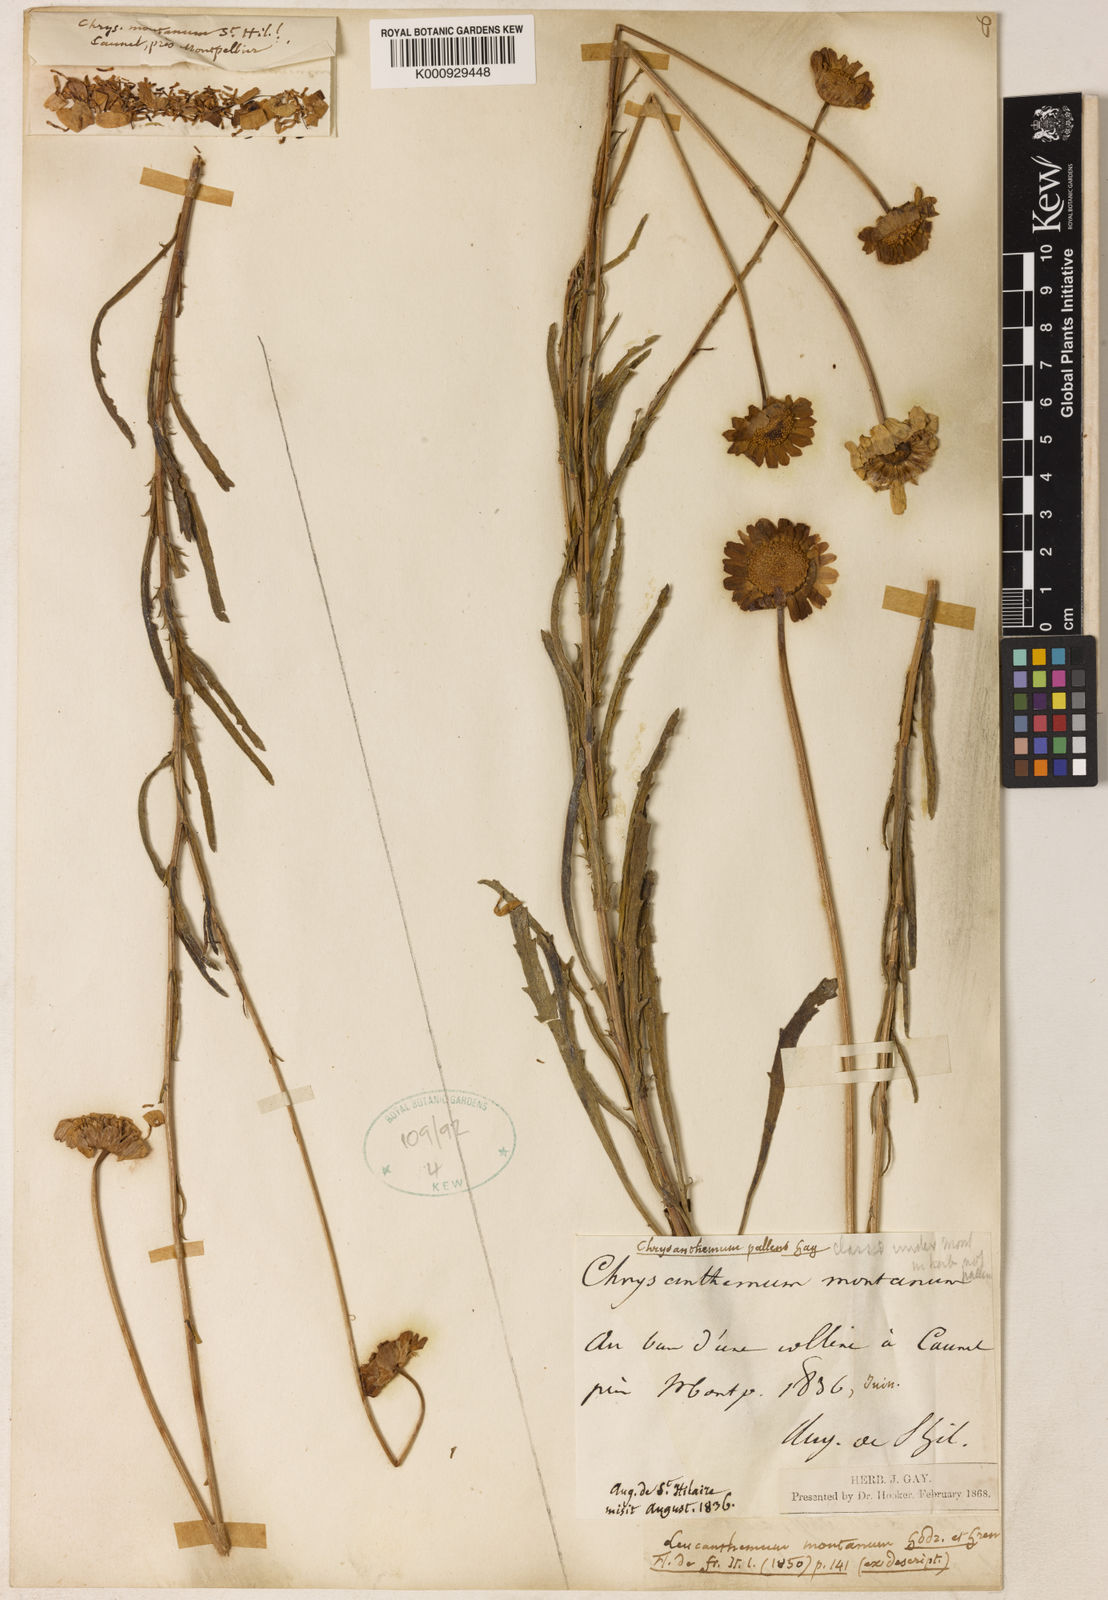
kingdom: Plantae
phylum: Tracheophyta
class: Magnoliopsida
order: Asterales
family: Asteraceae
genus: Leucanthemum
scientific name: Leucanthemum pallens
